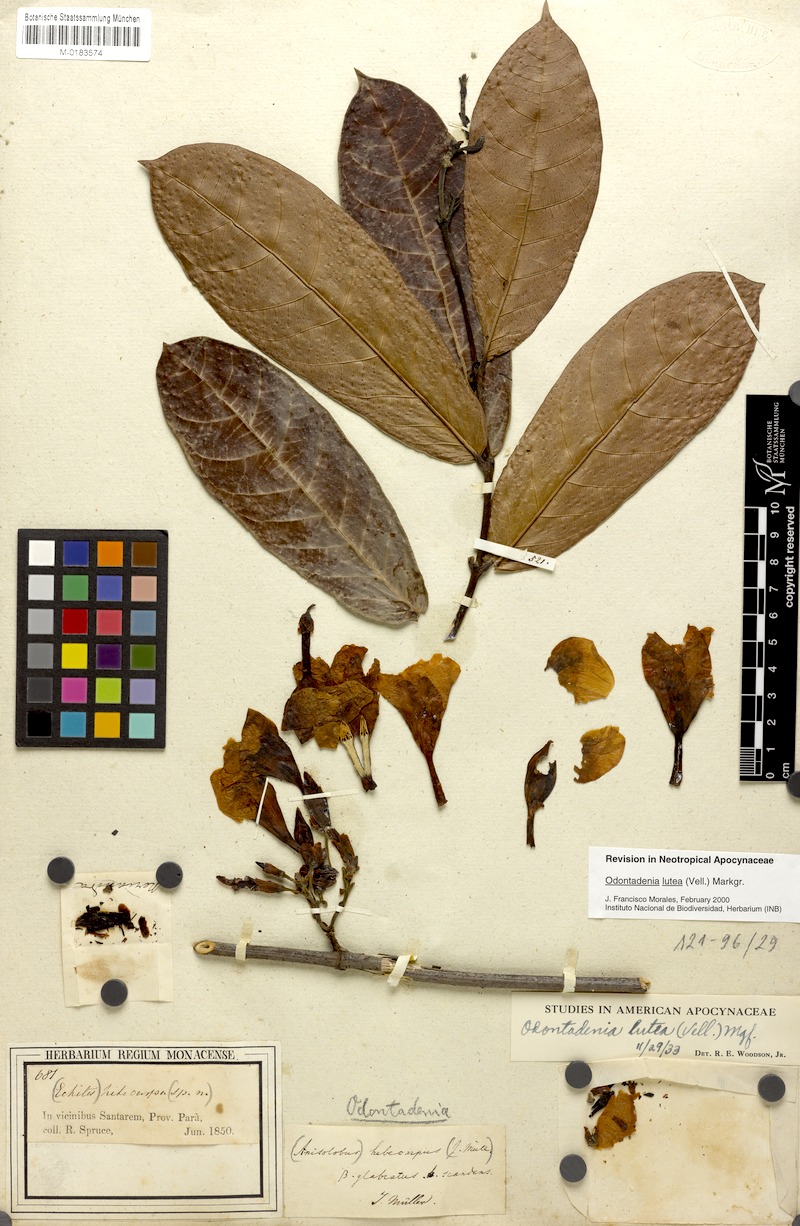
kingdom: Plantae
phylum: Tracheophyta
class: Magnoliopsida
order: Gentianales
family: Apocynaceae
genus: Odontadenia
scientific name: Odontadenia lutea
